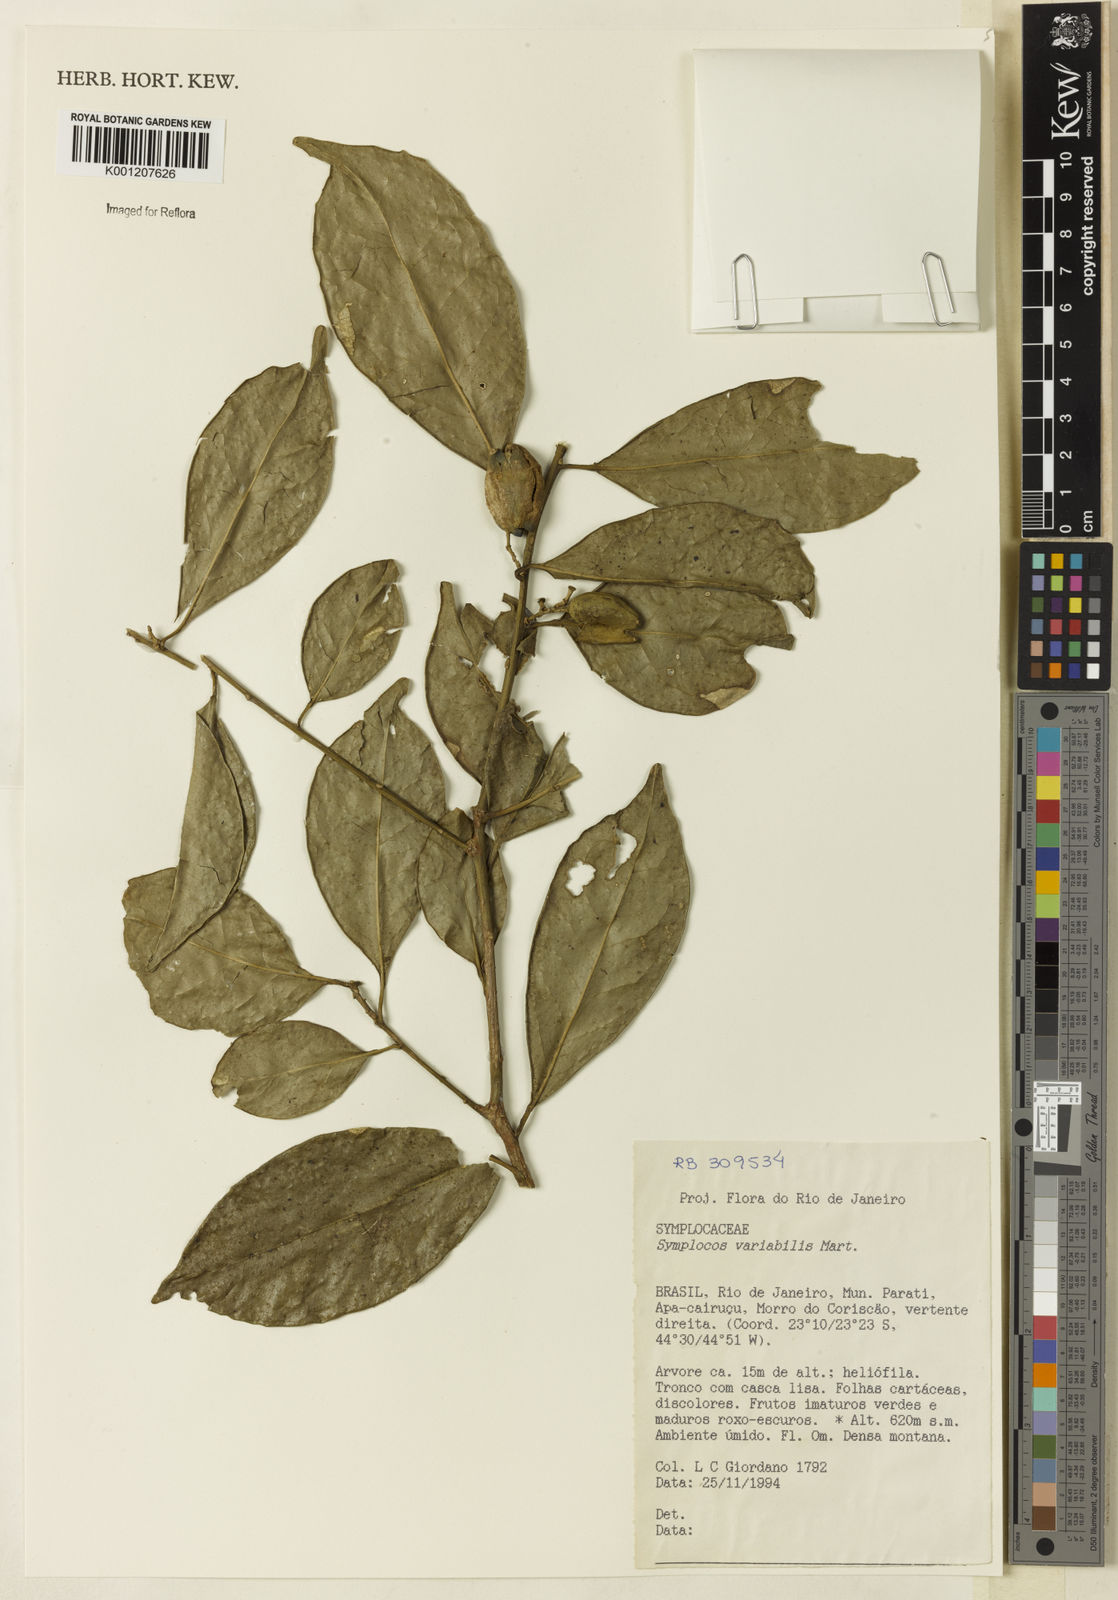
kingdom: Plantae
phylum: Tracheophyta
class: Magnoliopsida
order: Ericales
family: Symplocaceae
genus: Symplocos
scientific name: Symplocos estrellensis
